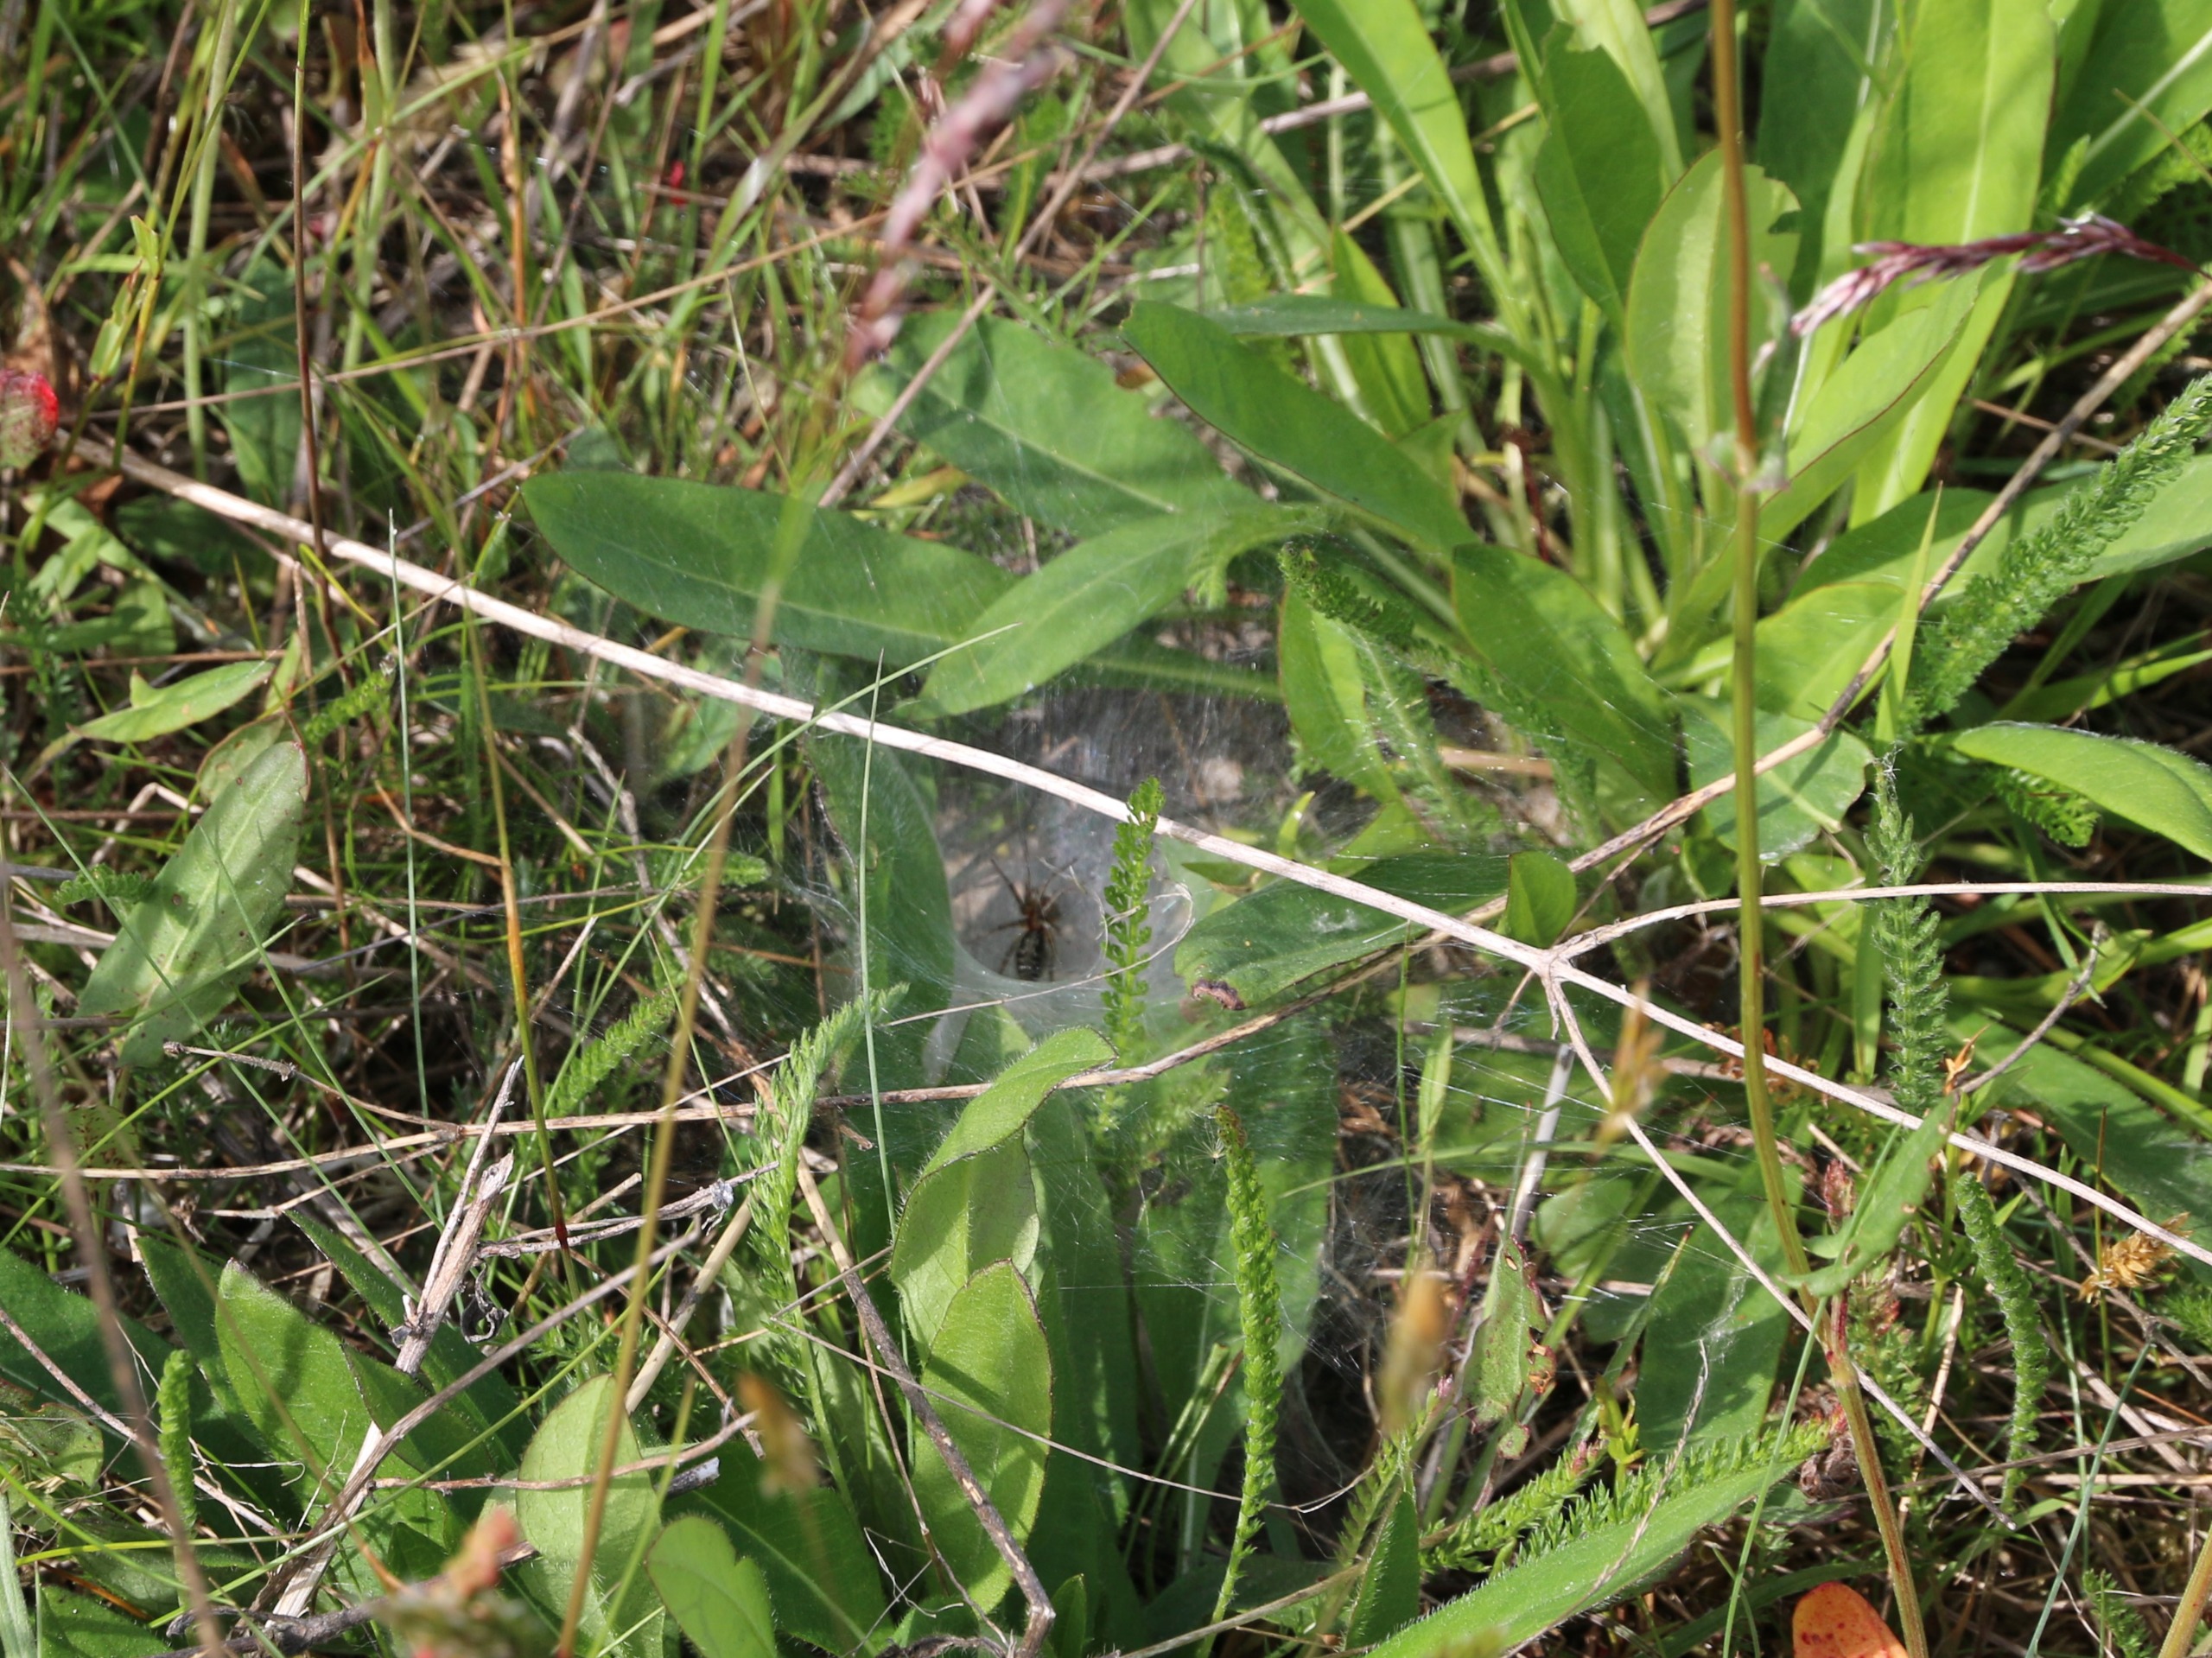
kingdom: Animalia
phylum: Arthropoda
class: Arachnida
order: Araneae
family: Agelenidae
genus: Agelena
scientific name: Agelena labyrinthica
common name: Labyrintedderkop
